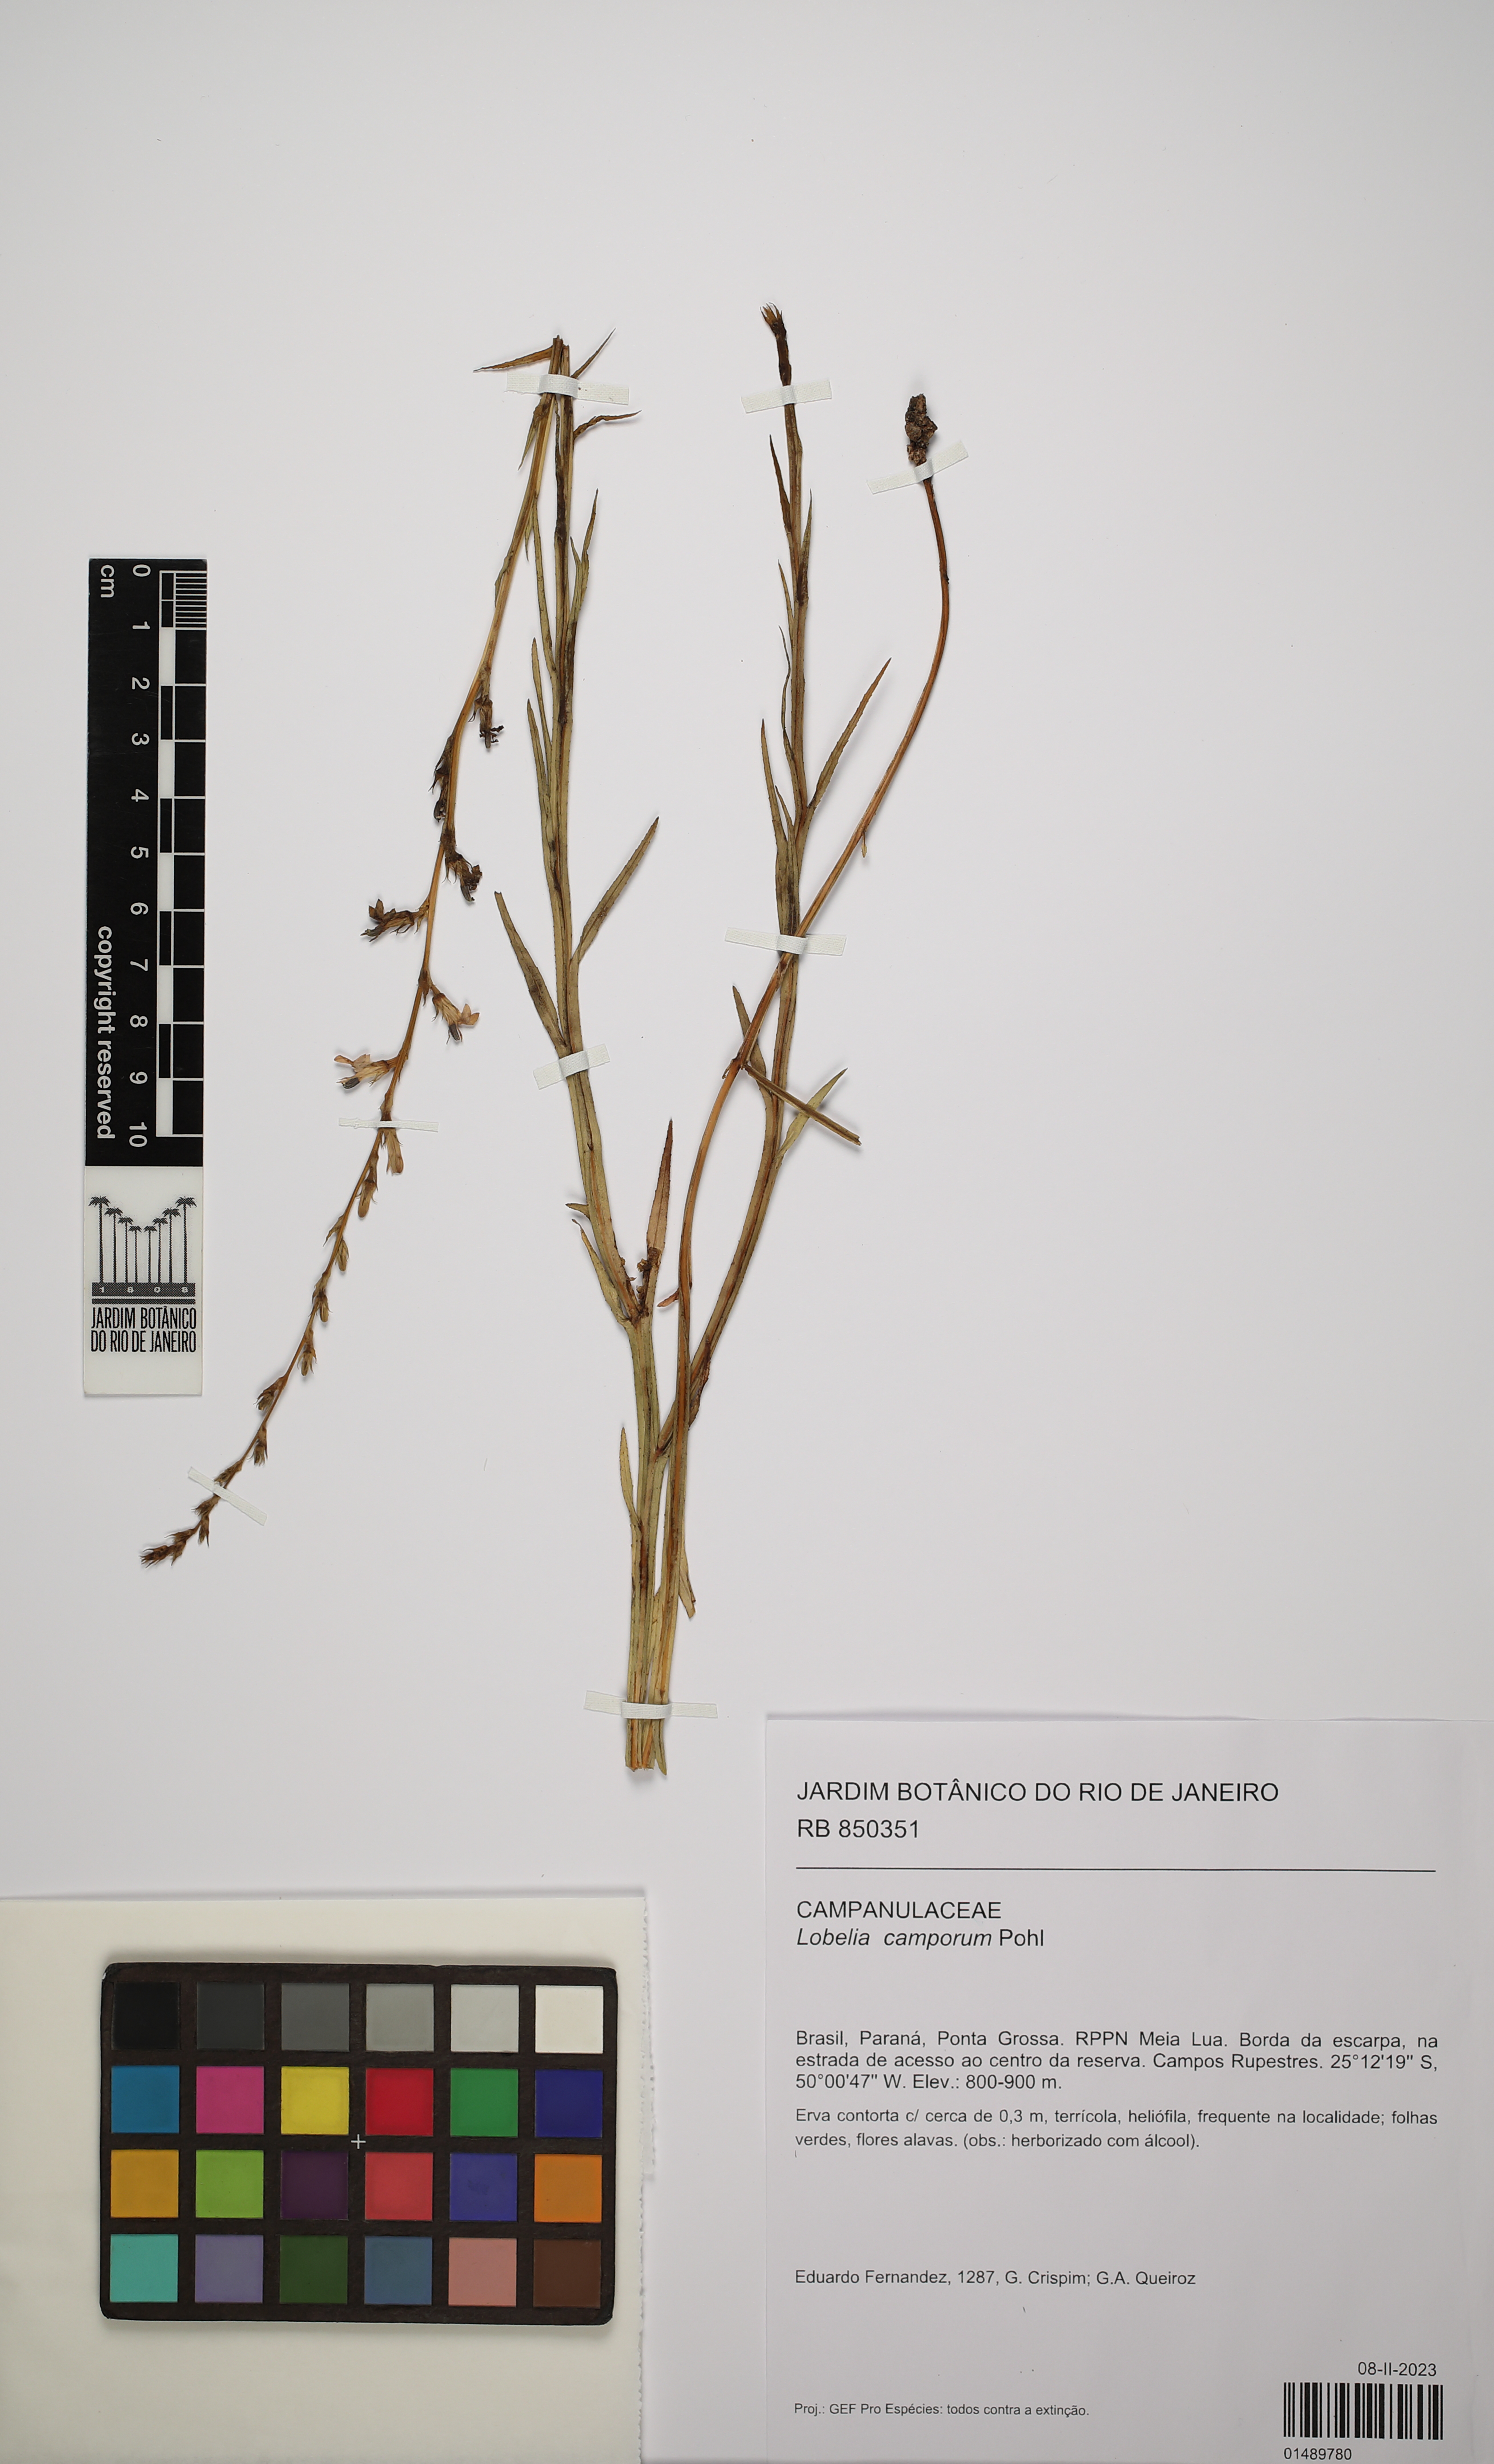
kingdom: Plantae
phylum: Tracheophyta
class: Magnoliopsida
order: Asterales
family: Campanulaceae
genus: Lobelia
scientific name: Lobelia camporum
